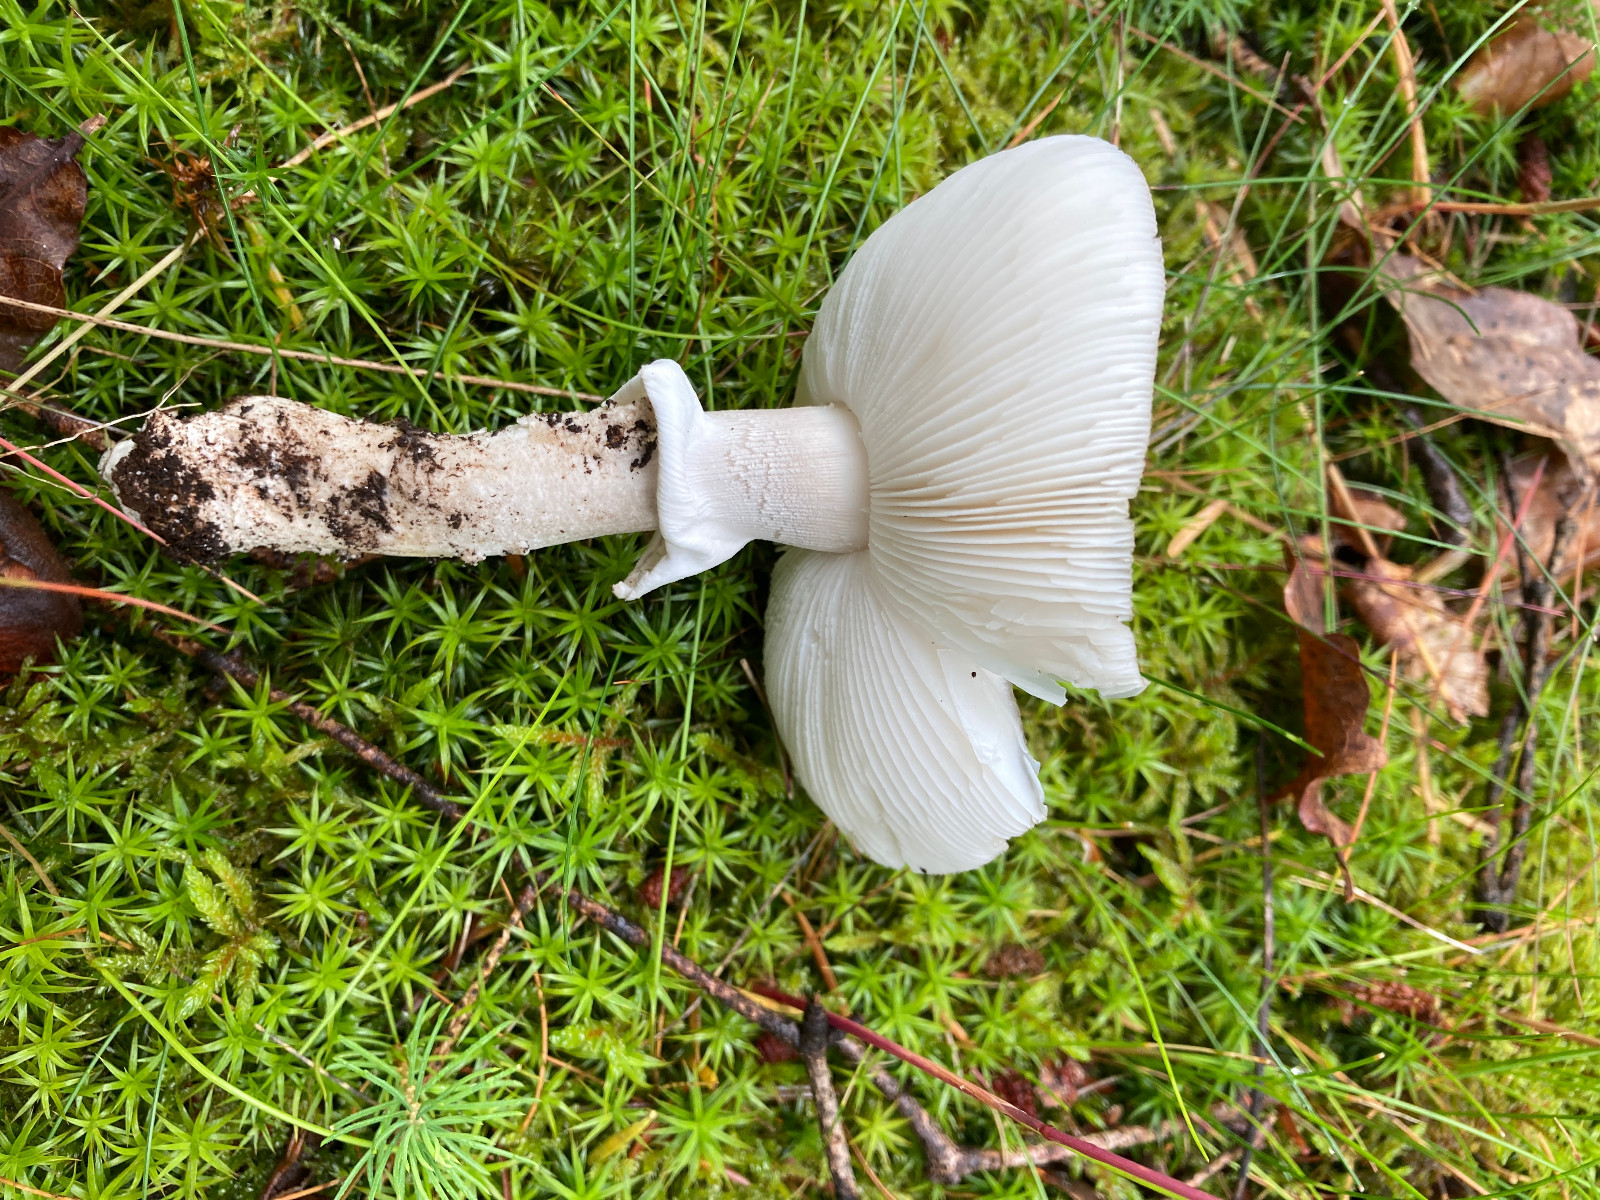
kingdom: Fungi
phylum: Basidiomycota
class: Agaricomycetes
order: Agaricales
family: Amanitaceae
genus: Amanita
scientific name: Amanita rubescens
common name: rødmende fluesvamp
